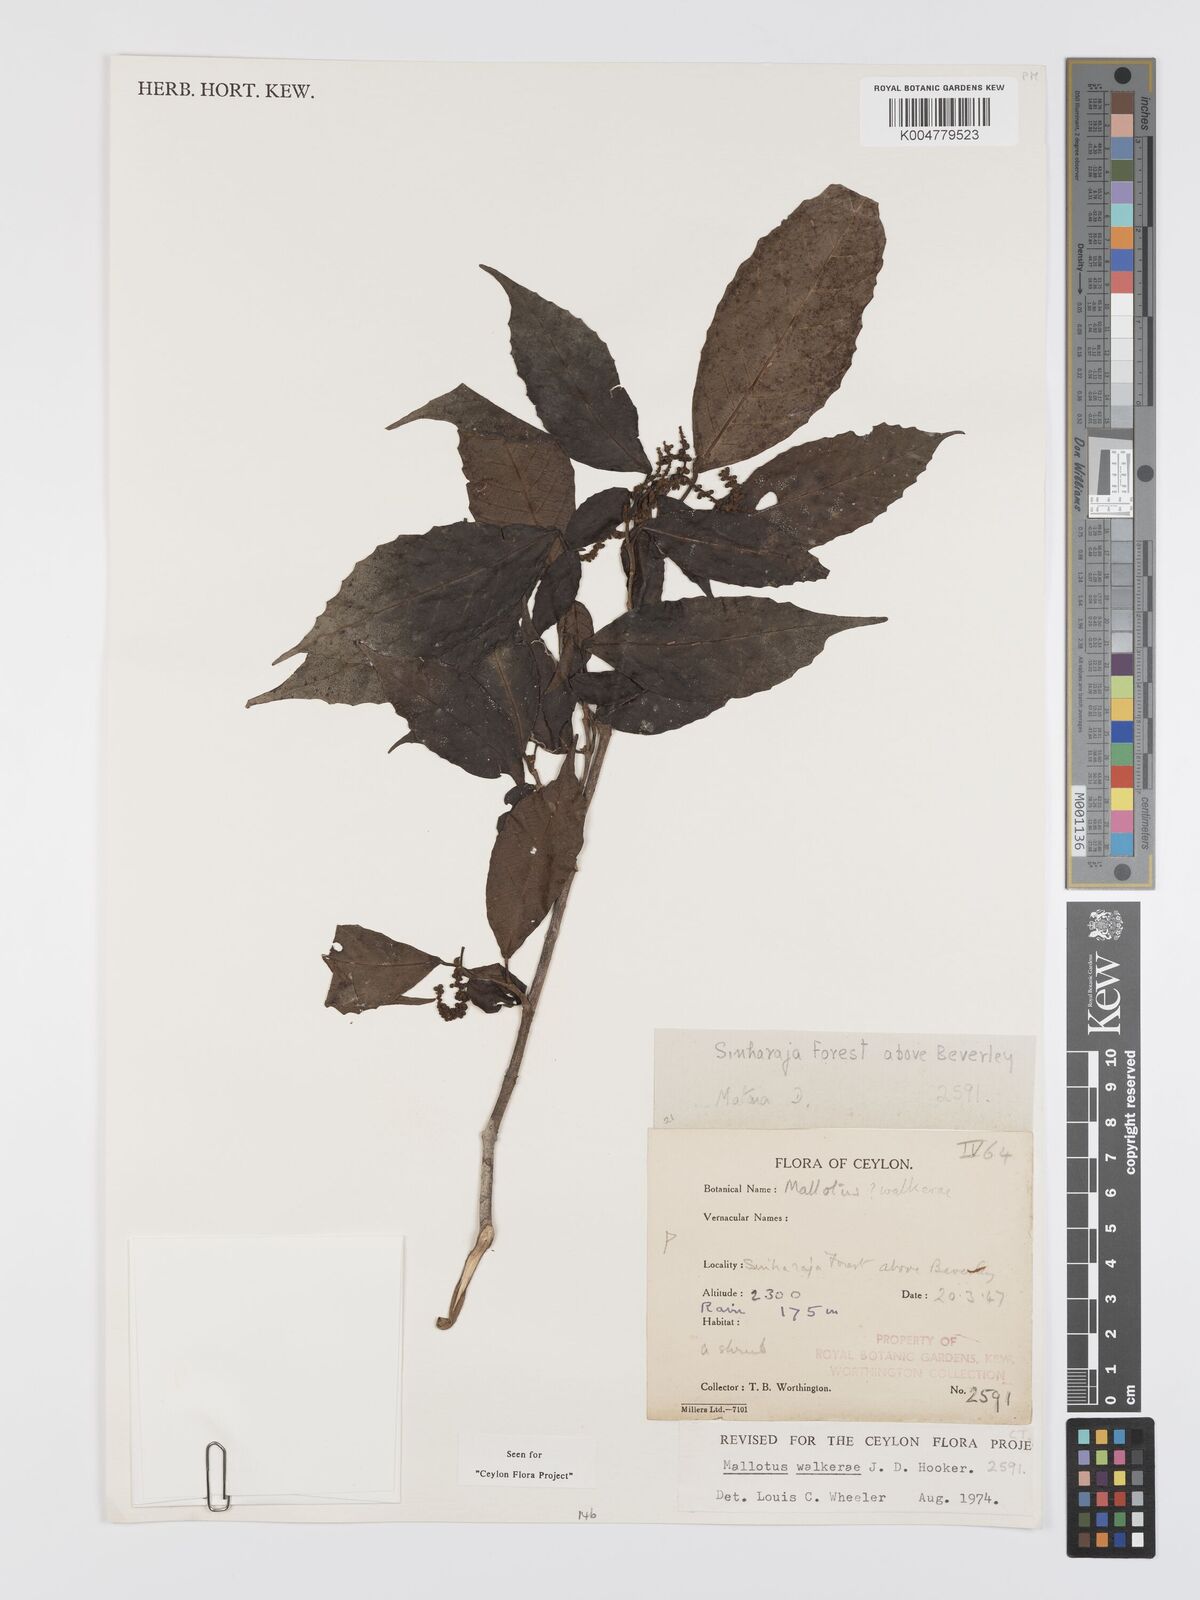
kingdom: Plantae
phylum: Tracheophyta
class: Magnoliopsida
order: Malpighiales
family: Euphorbiaceae
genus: Mallotus
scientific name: Mallotus resinosus
